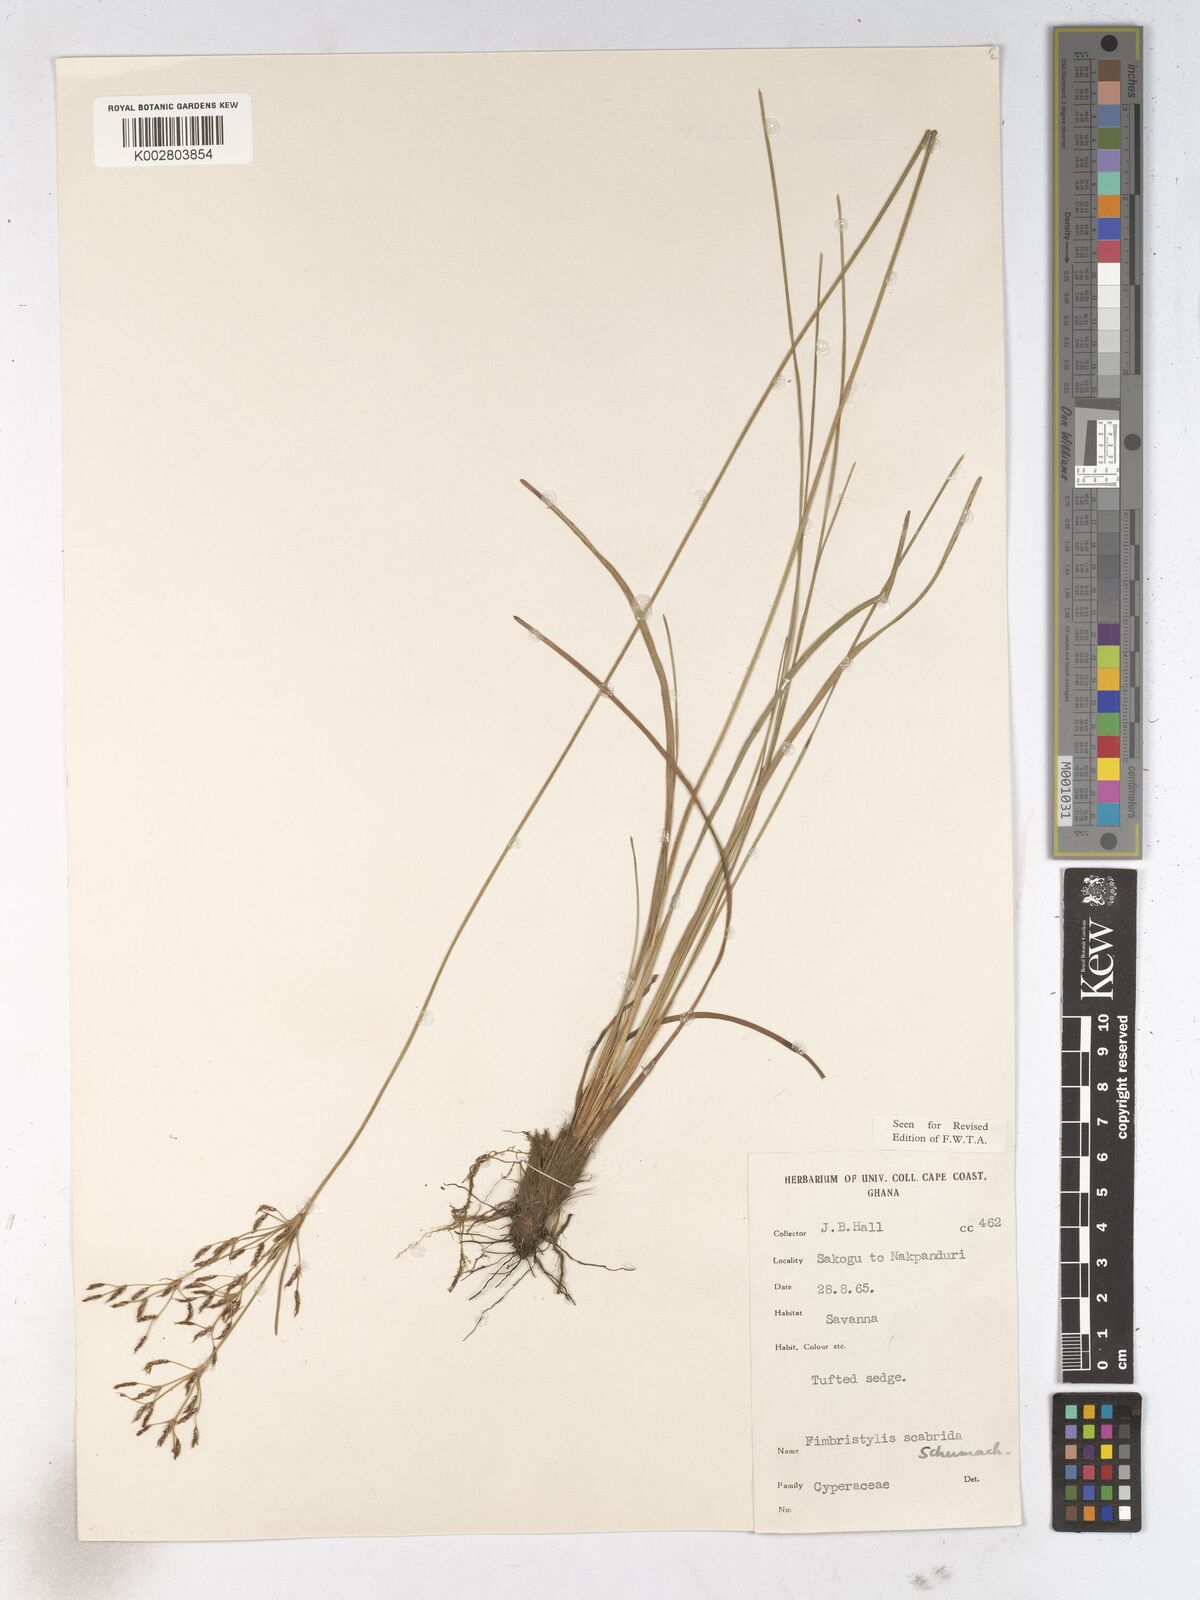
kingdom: Plantae
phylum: Tracheophyta
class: Liliopsida
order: Poales
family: Cyperaceae
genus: Fimbristylis
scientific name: Fimbristylis scabrida
